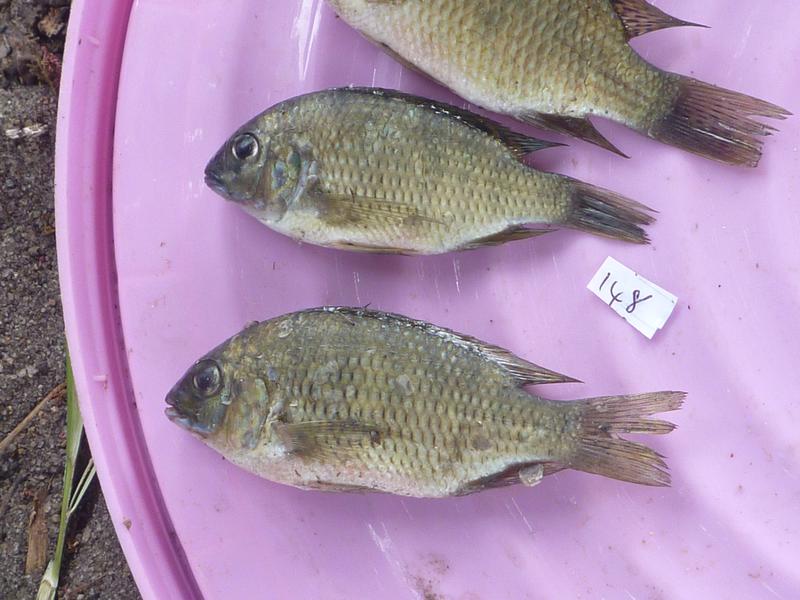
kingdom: Animalia
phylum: Chordata
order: Perciformes
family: Cichlidae
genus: Coptodon
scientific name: Coptodon rendalli
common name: Redbreast tilapia
